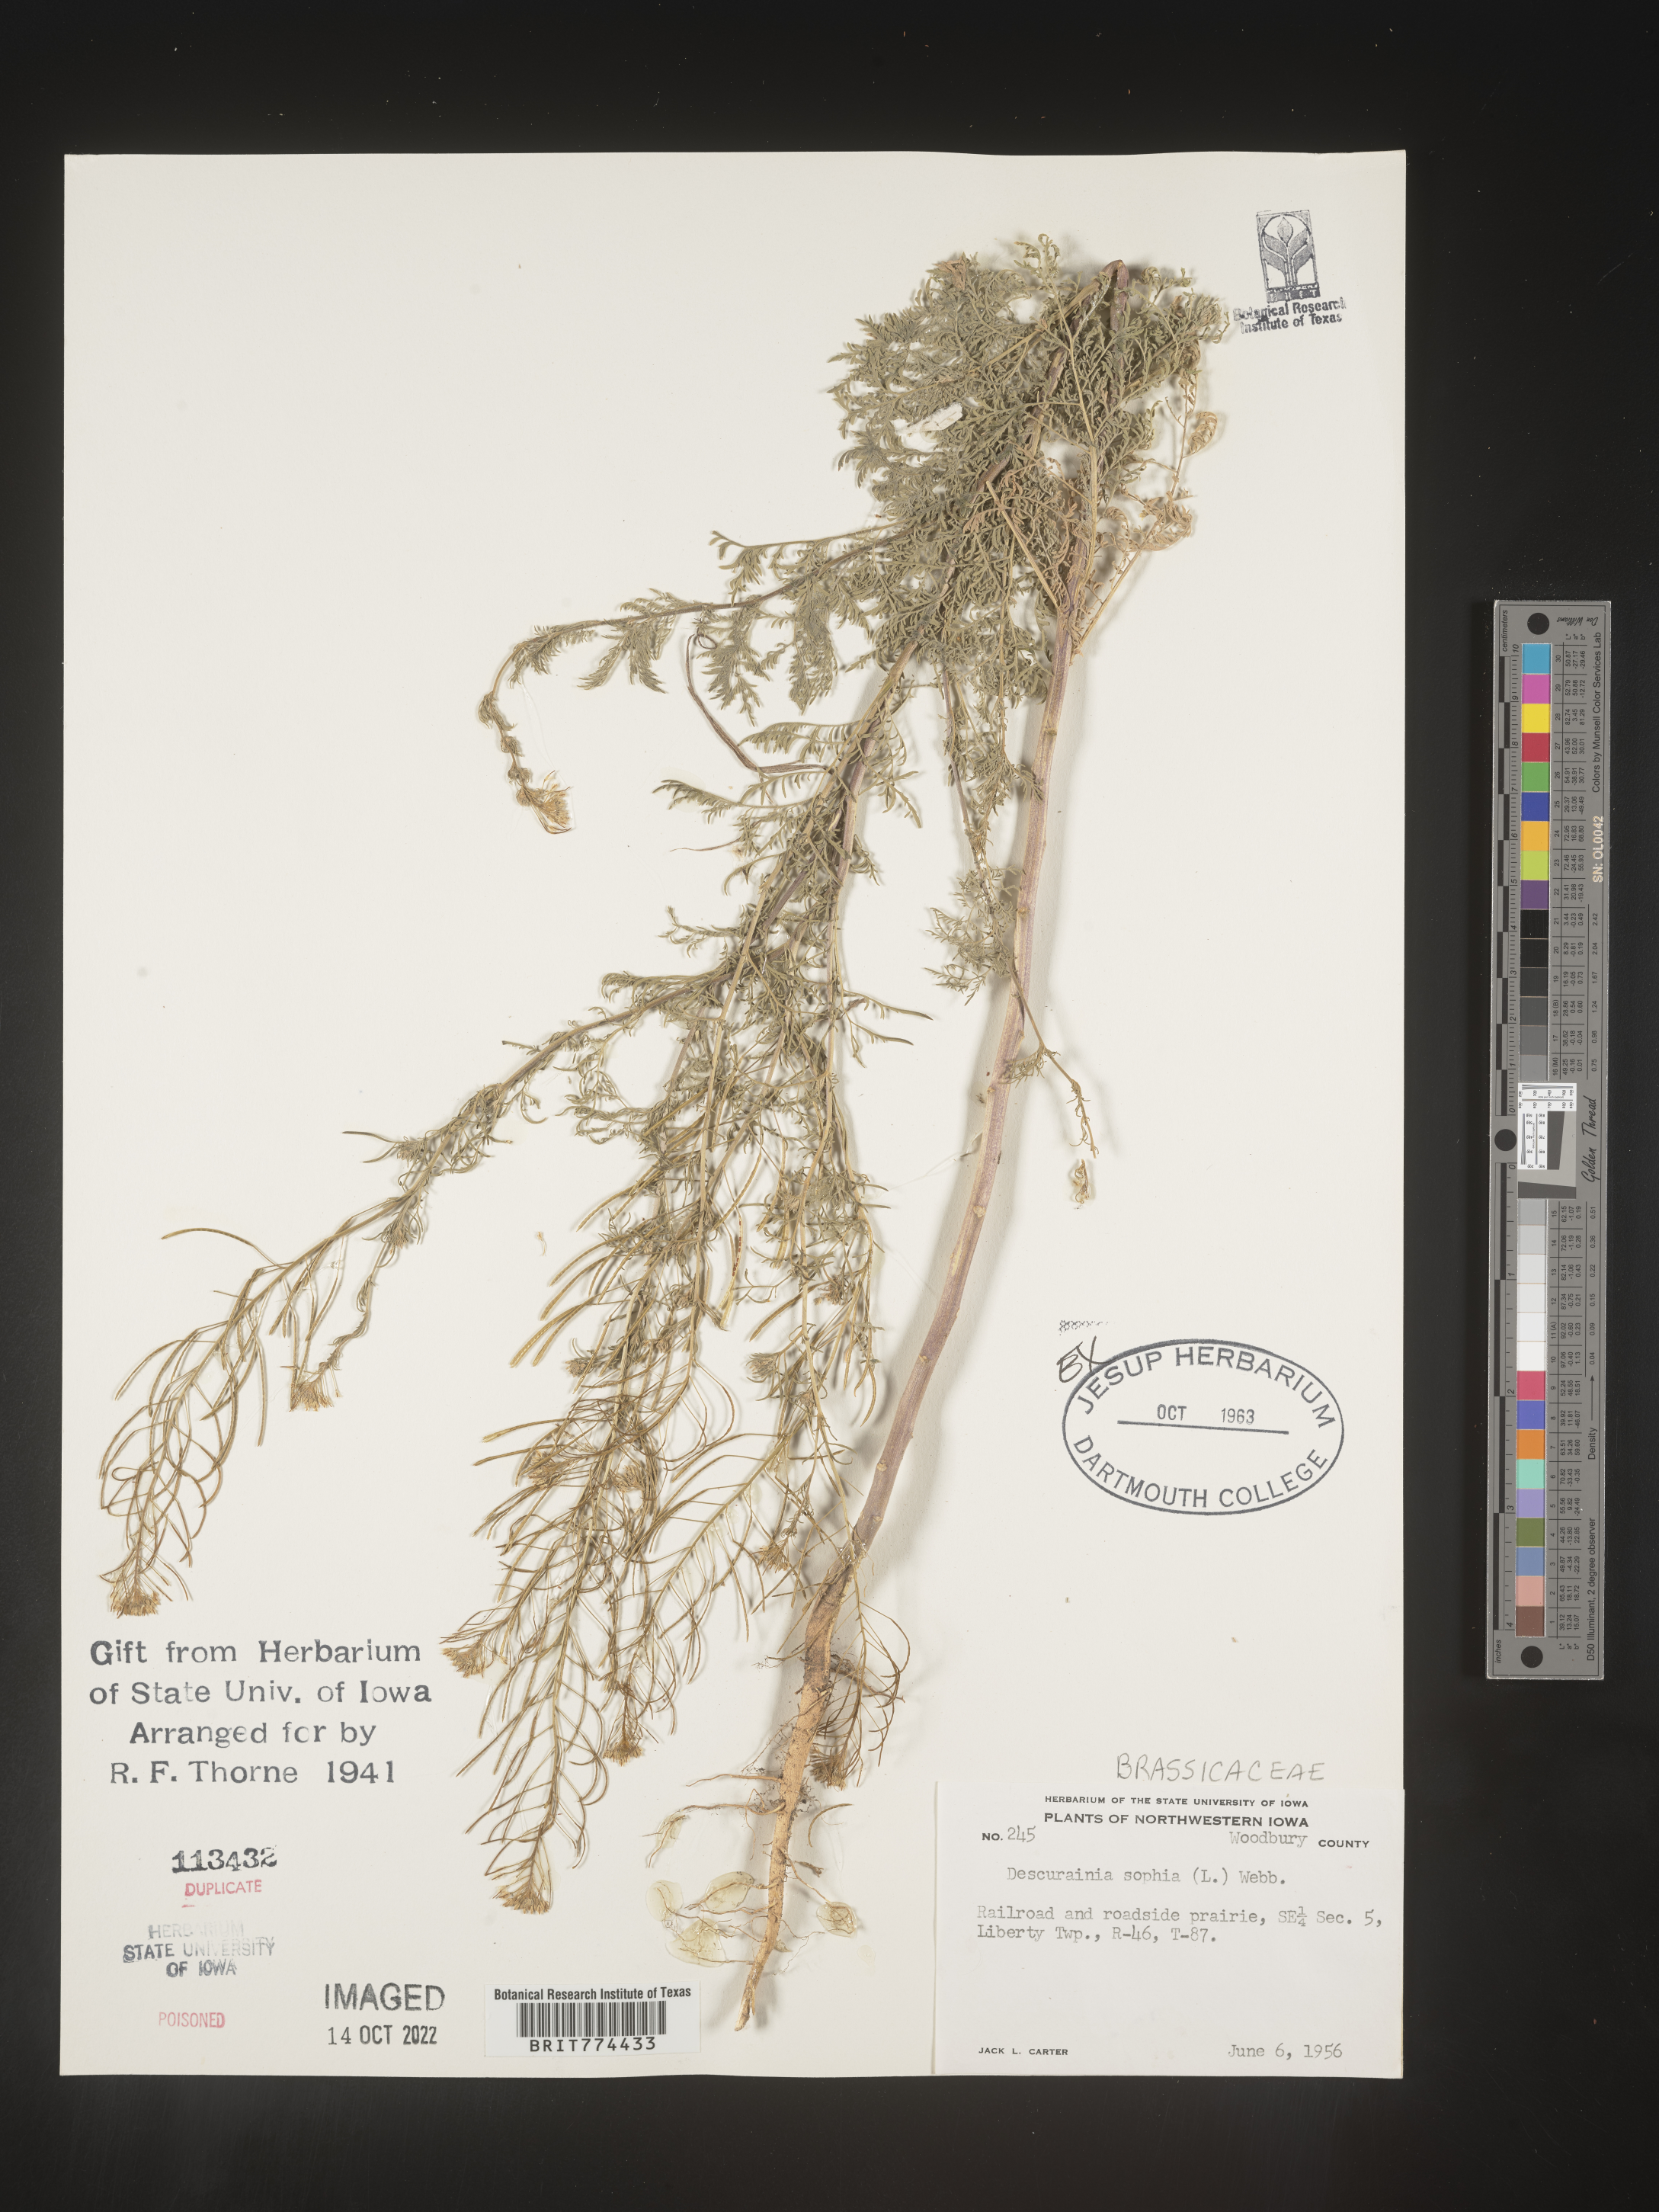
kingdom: Plantae
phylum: Tracheophyta
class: Magnoliopsida
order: Brassicales
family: Brassicaceae
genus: Descurainia
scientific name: Descurainia sophia
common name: Flixweed
